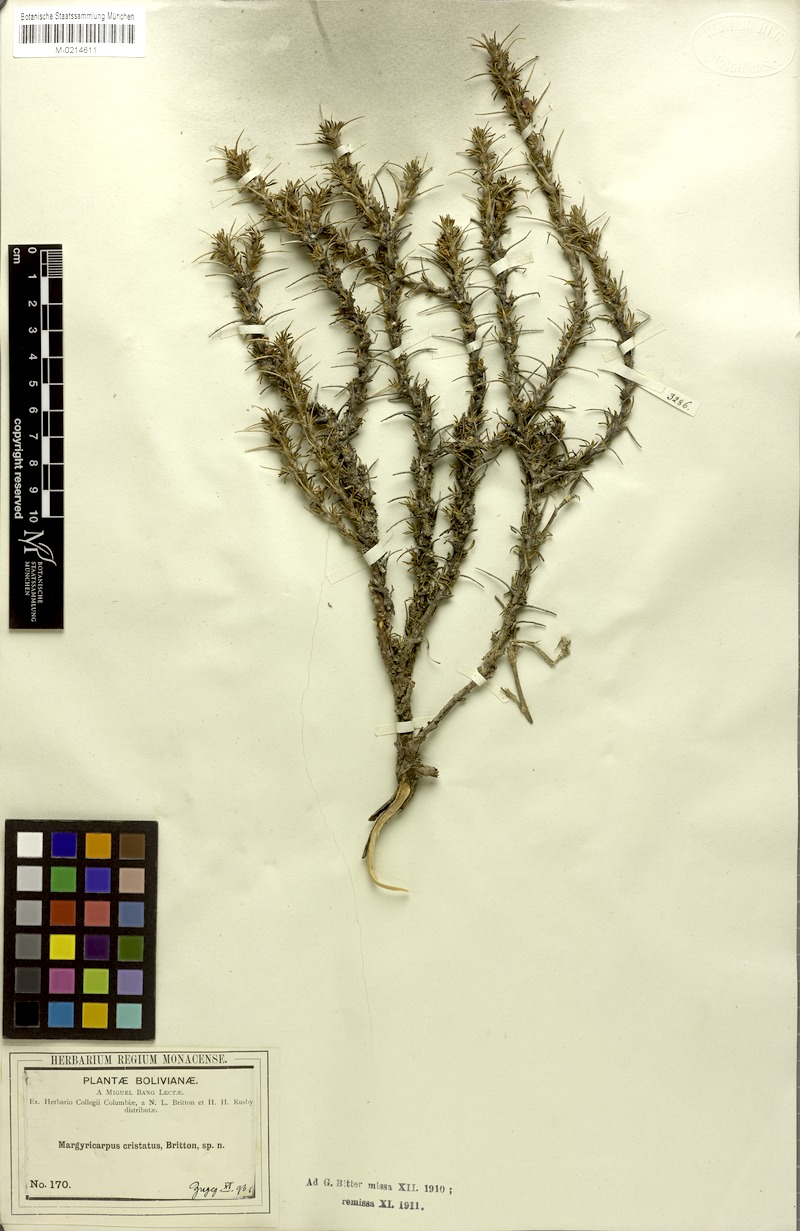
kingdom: Plantae
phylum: Tracheophyta
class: Magnoliopsida
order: Rosales
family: Rosaceae
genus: Margyricarpus
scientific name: Margyricarpus cristatus
